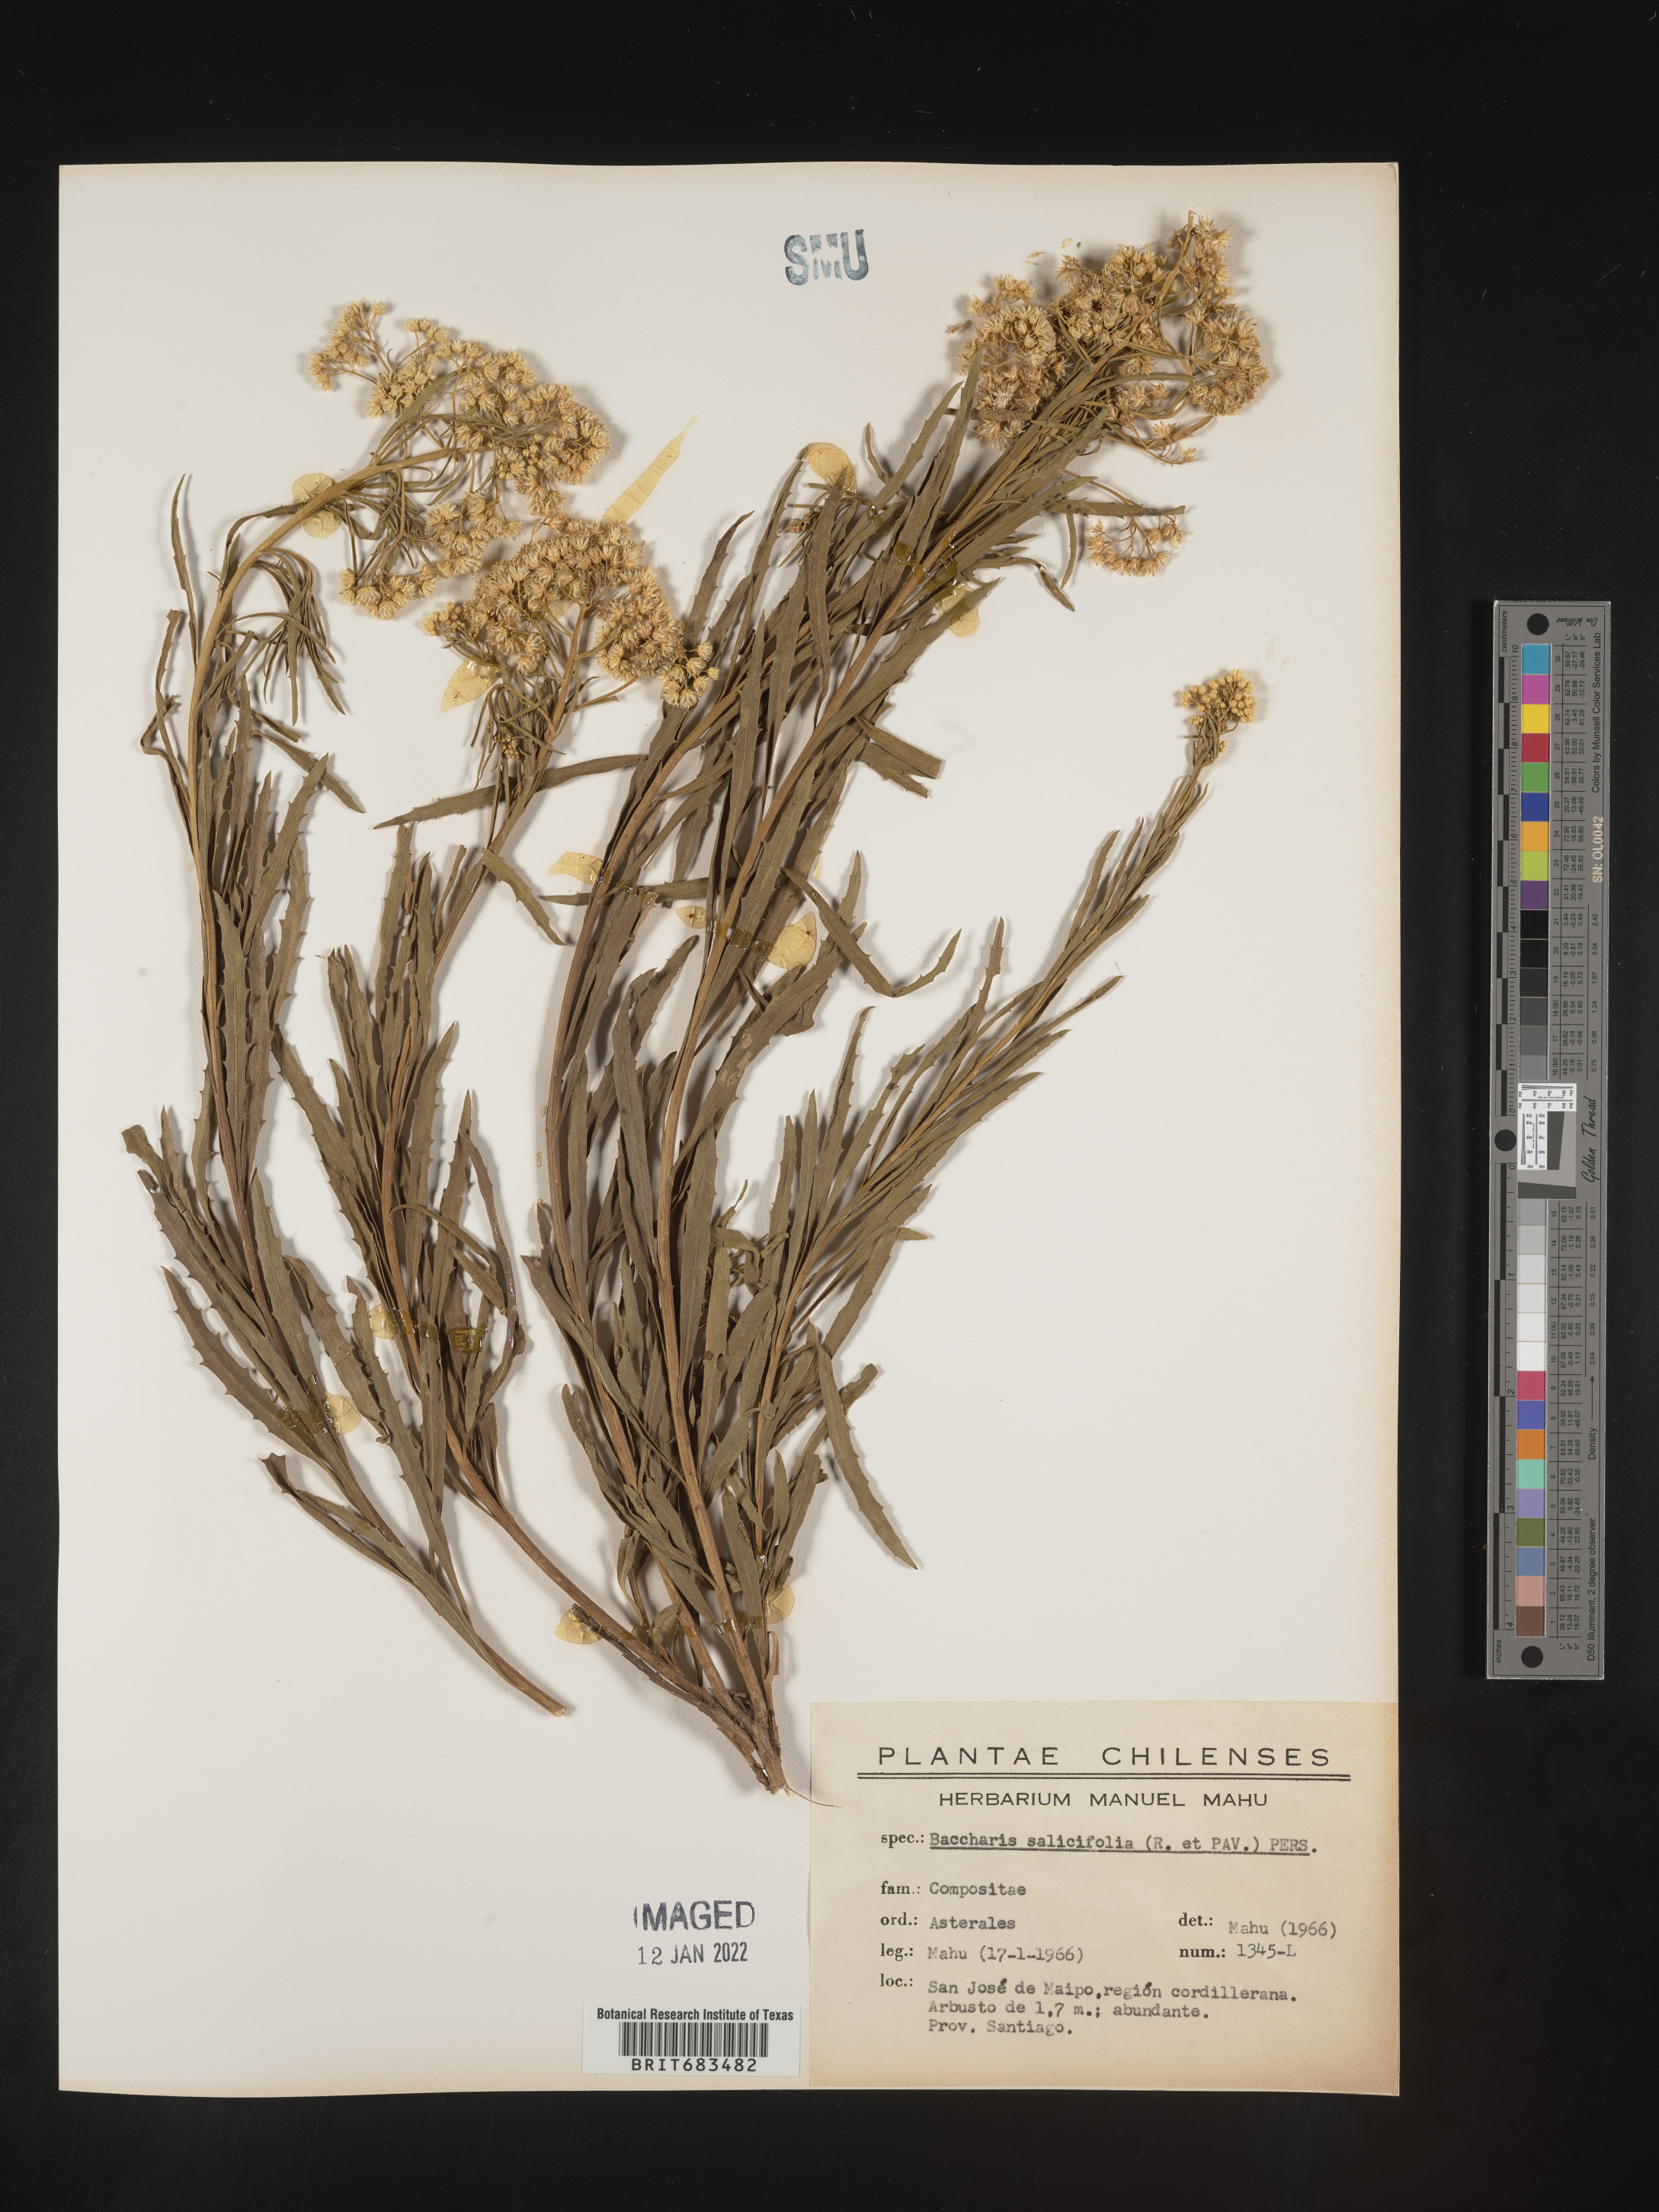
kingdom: Plantae
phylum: Tracheophyta
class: Magnoliopsida
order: Asterales
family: Asteraceae
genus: Baccharis
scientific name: Baccharis
